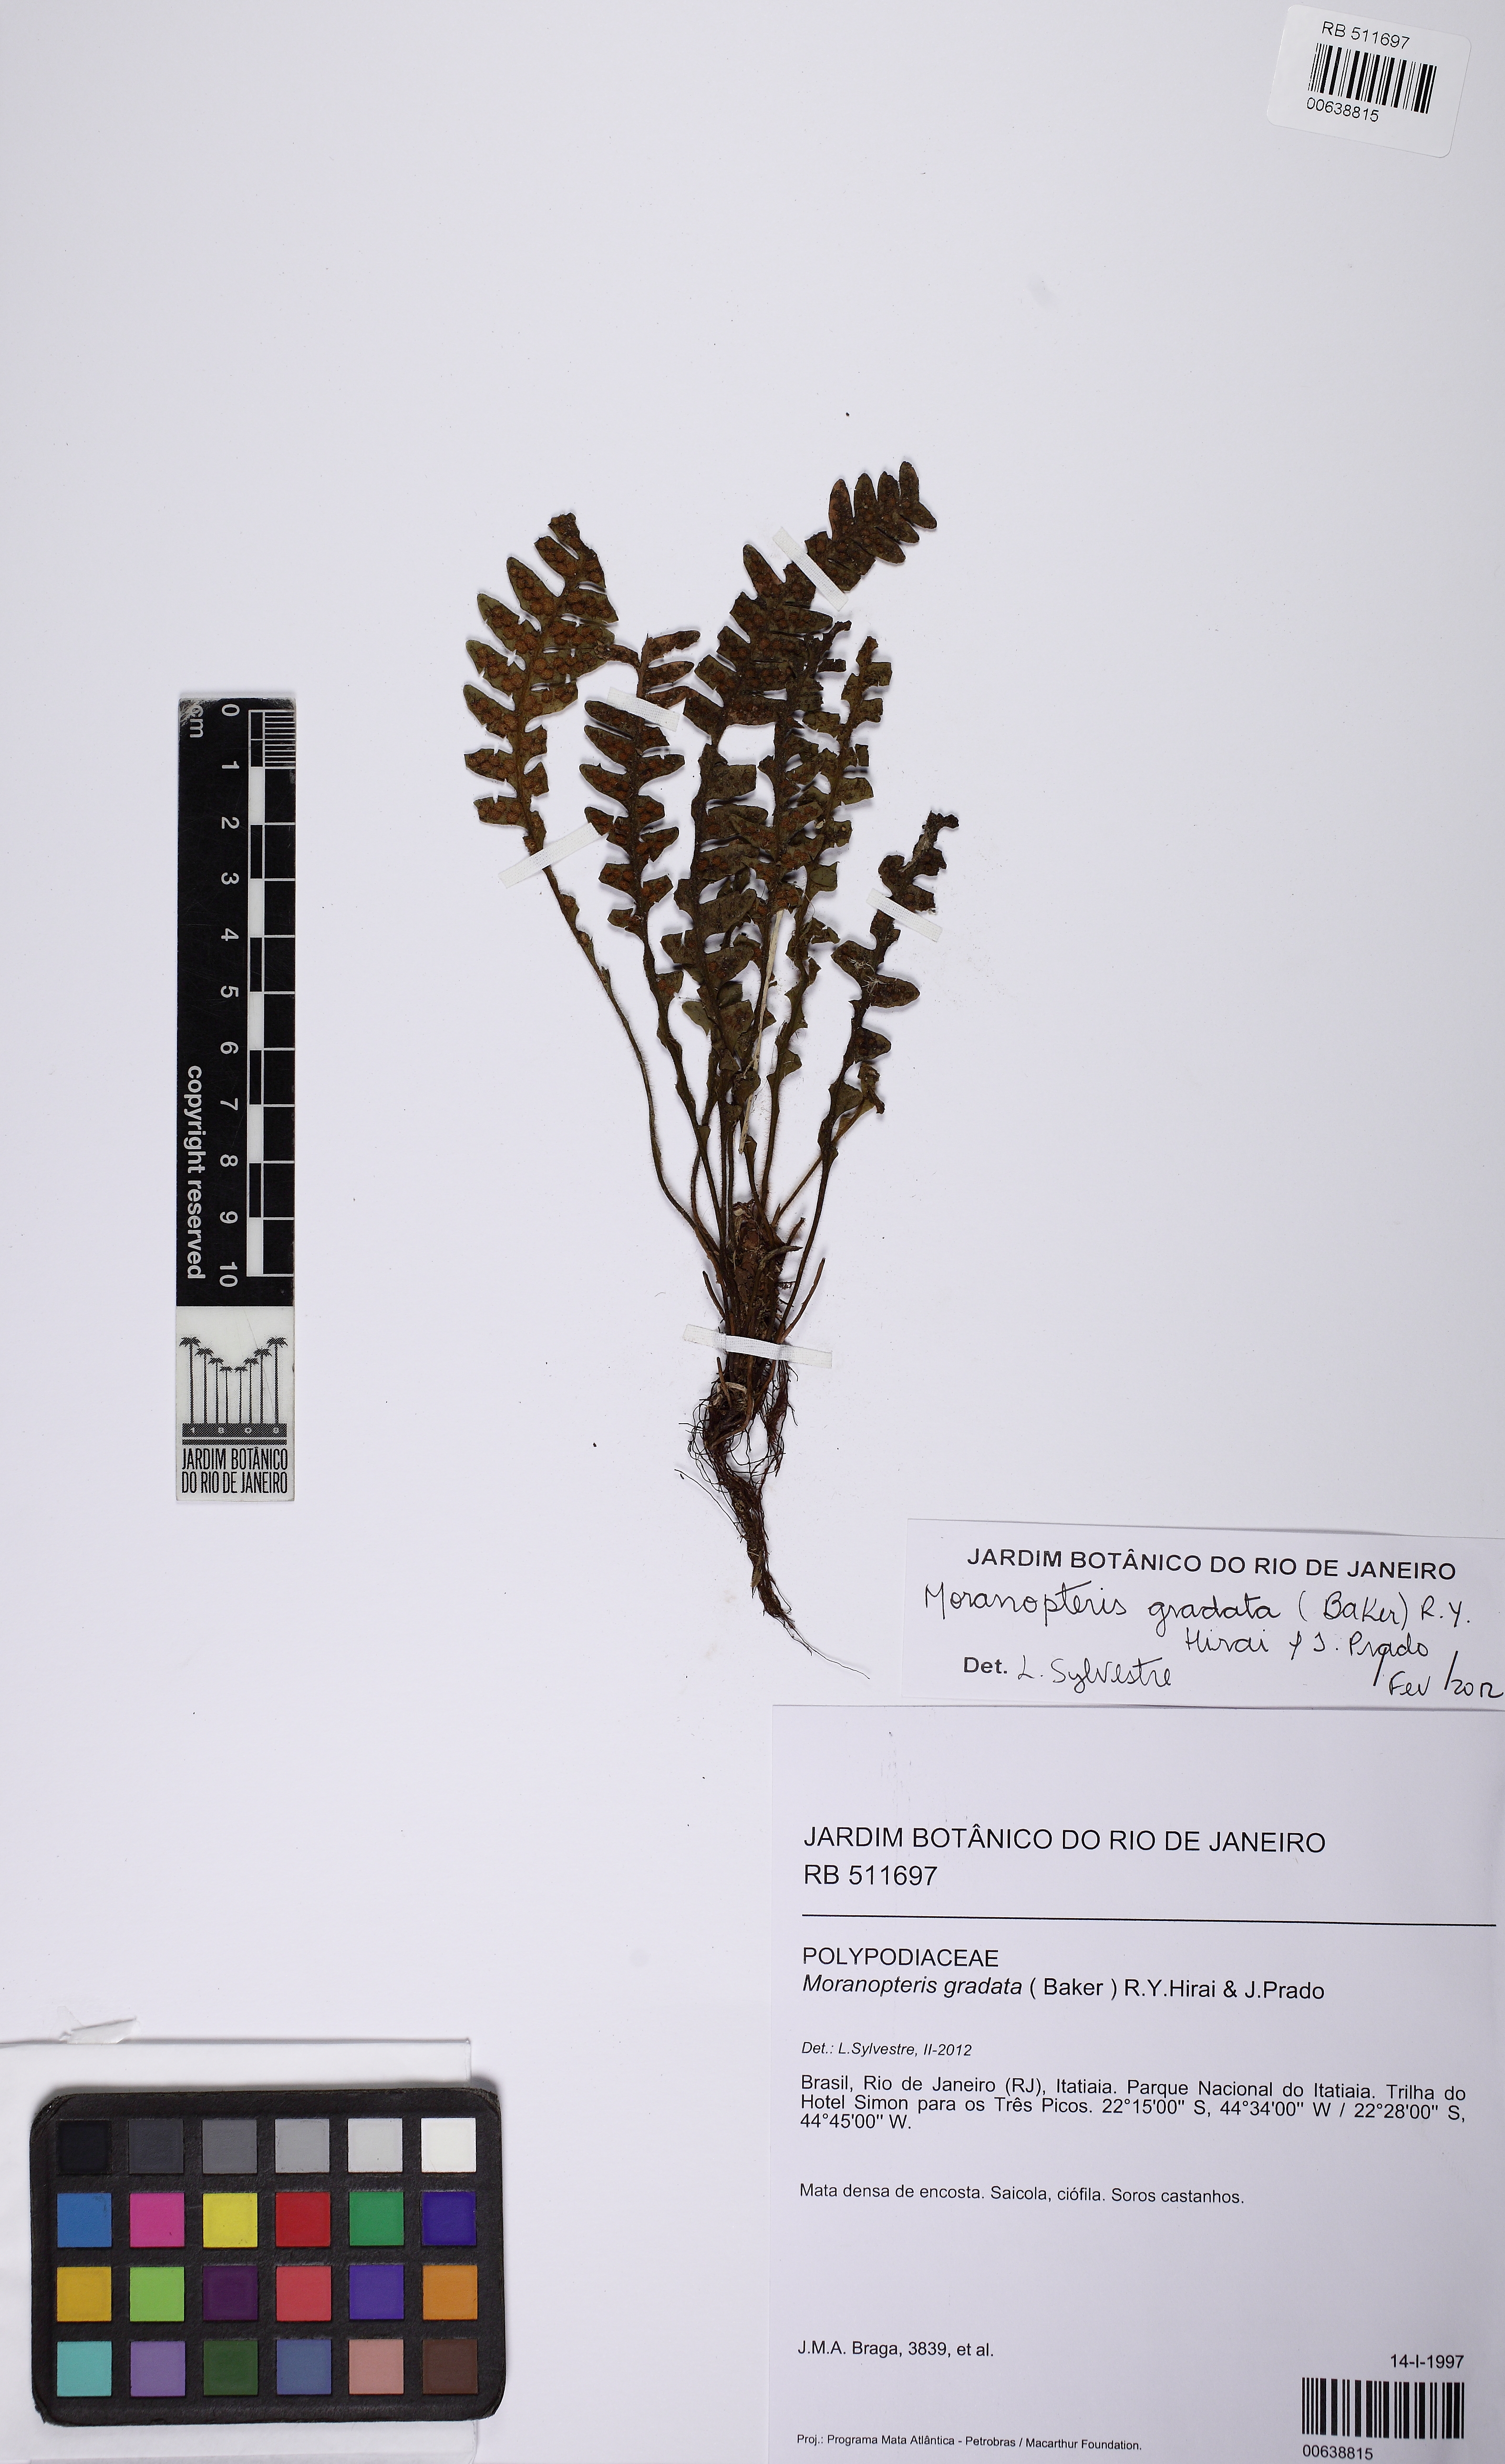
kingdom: Plantae
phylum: Tracheophyta
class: Polypodiopsida
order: Polypodiales
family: Polypodiaceae
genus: Moranopteris
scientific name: Moranopteris gradata
